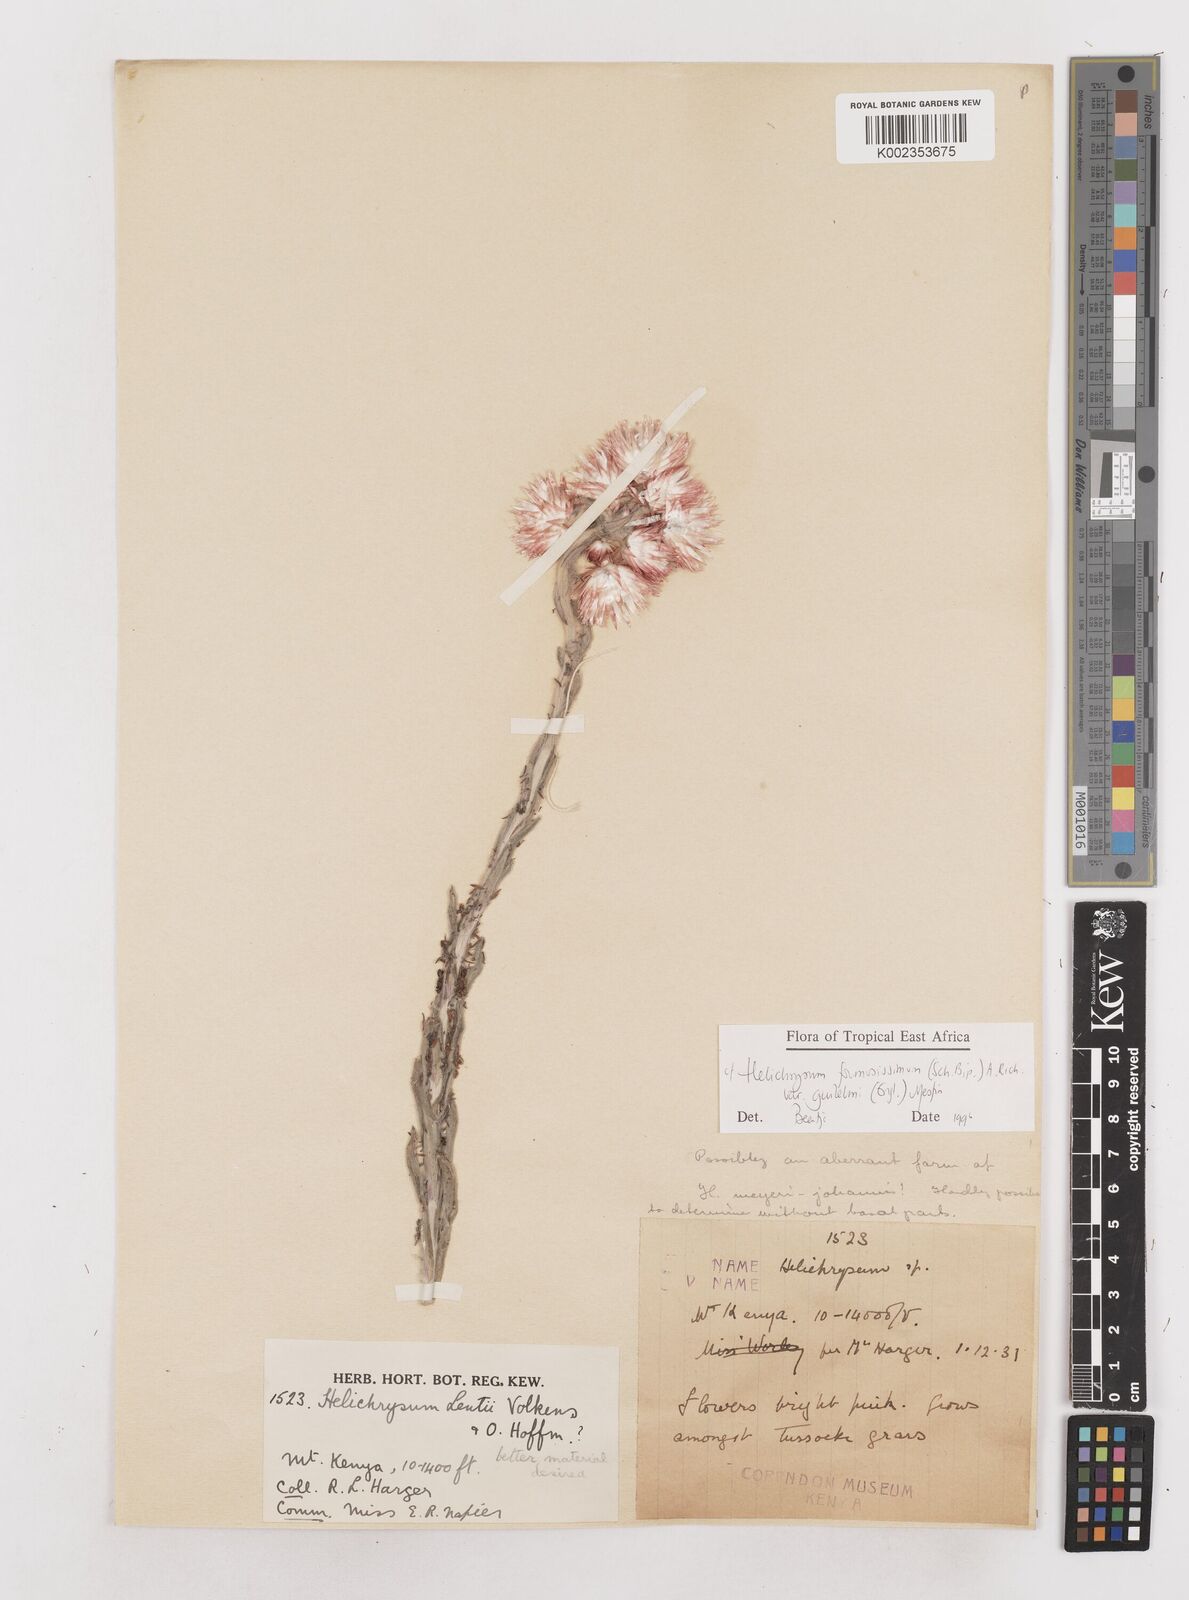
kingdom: Plantae
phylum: Tracheophyta
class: Magnoliopsida
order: Asterales
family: Asteraceae
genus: Helichrysum
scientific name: Helichrysum formosissimum
